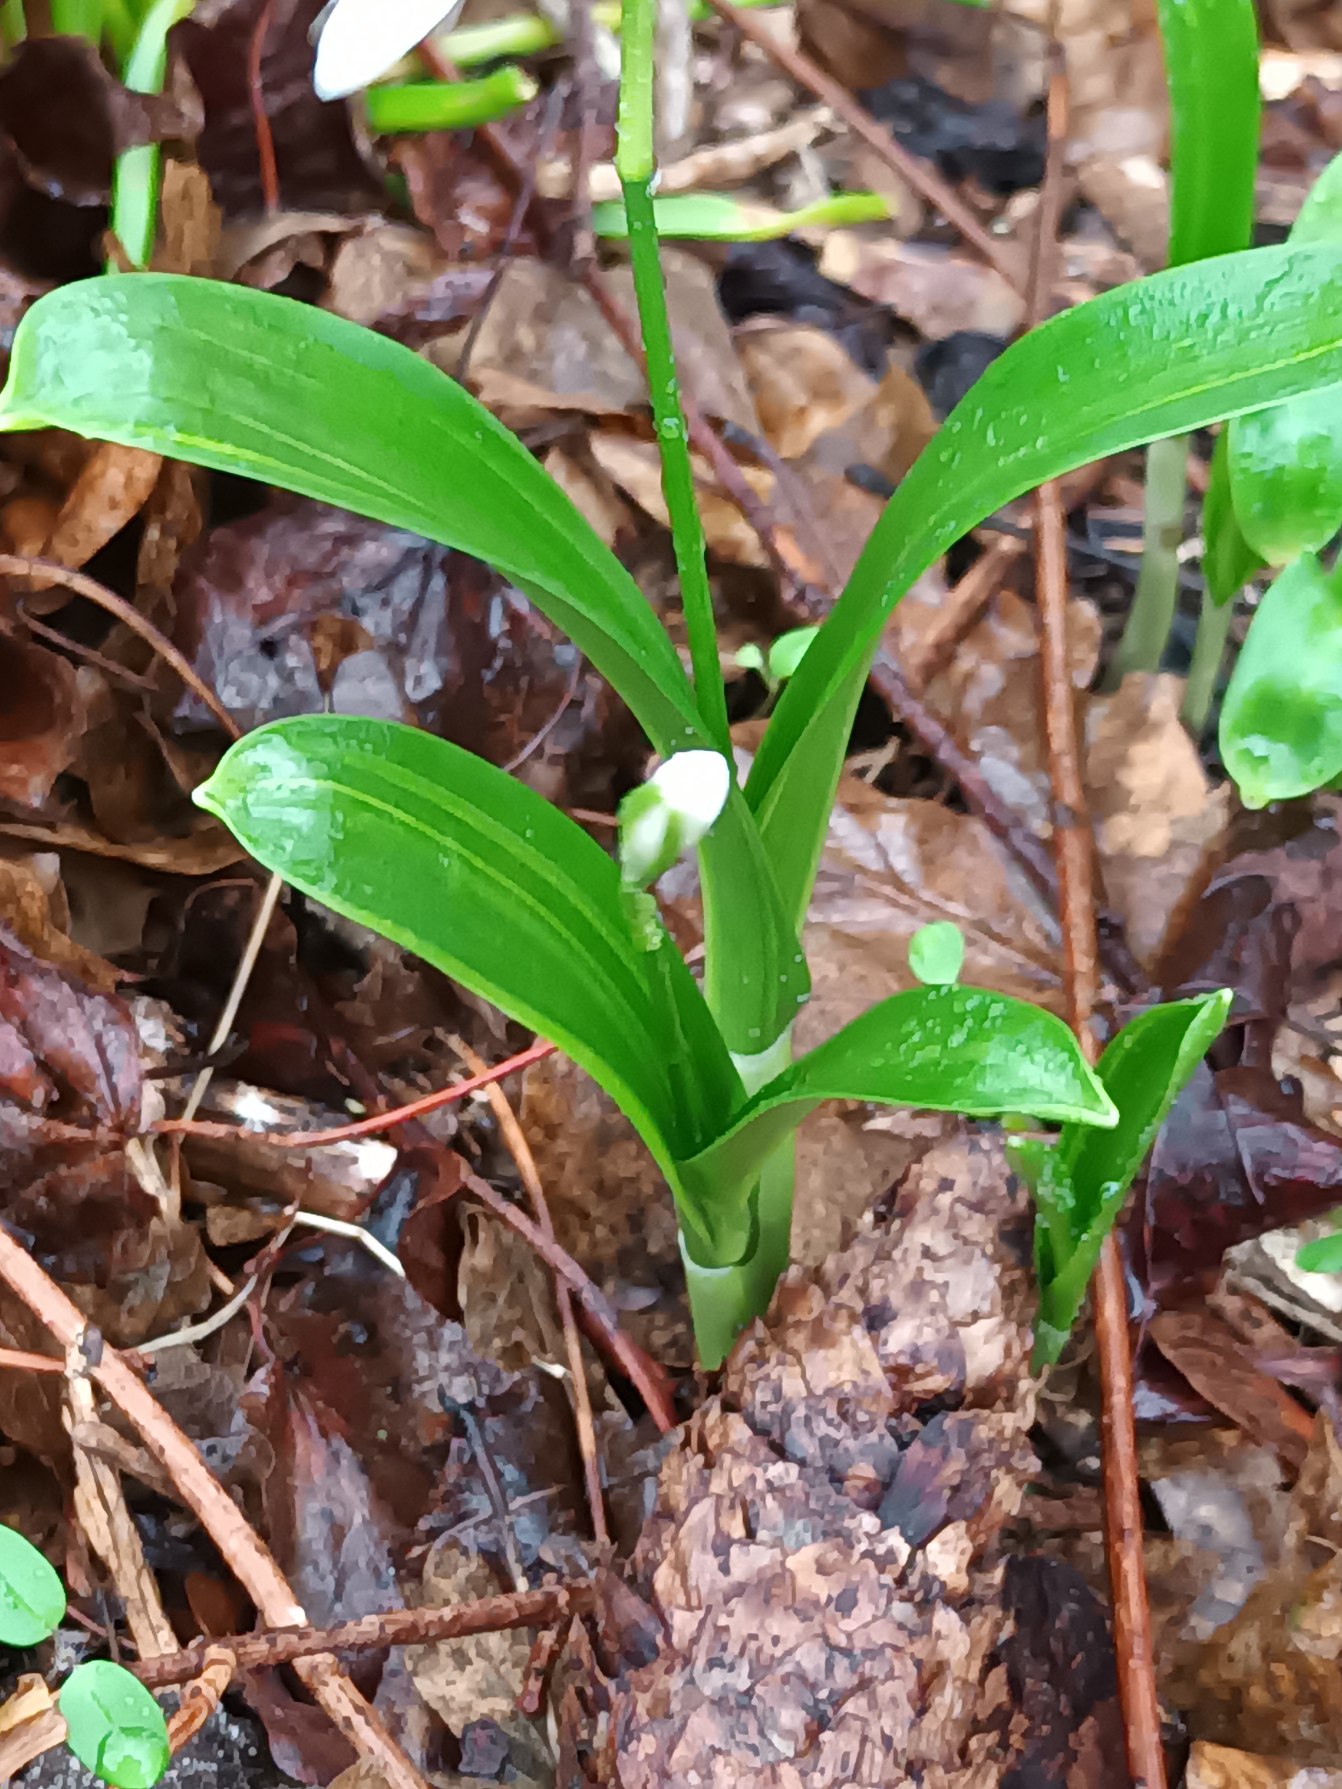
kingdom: Plantae
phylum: Tracheophyta
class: Liliopsida
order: Asparagales
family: Amaryllidaceae
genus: Galanthus
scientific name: Galanthus woronowii
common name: Kaukasisk vintergæk
